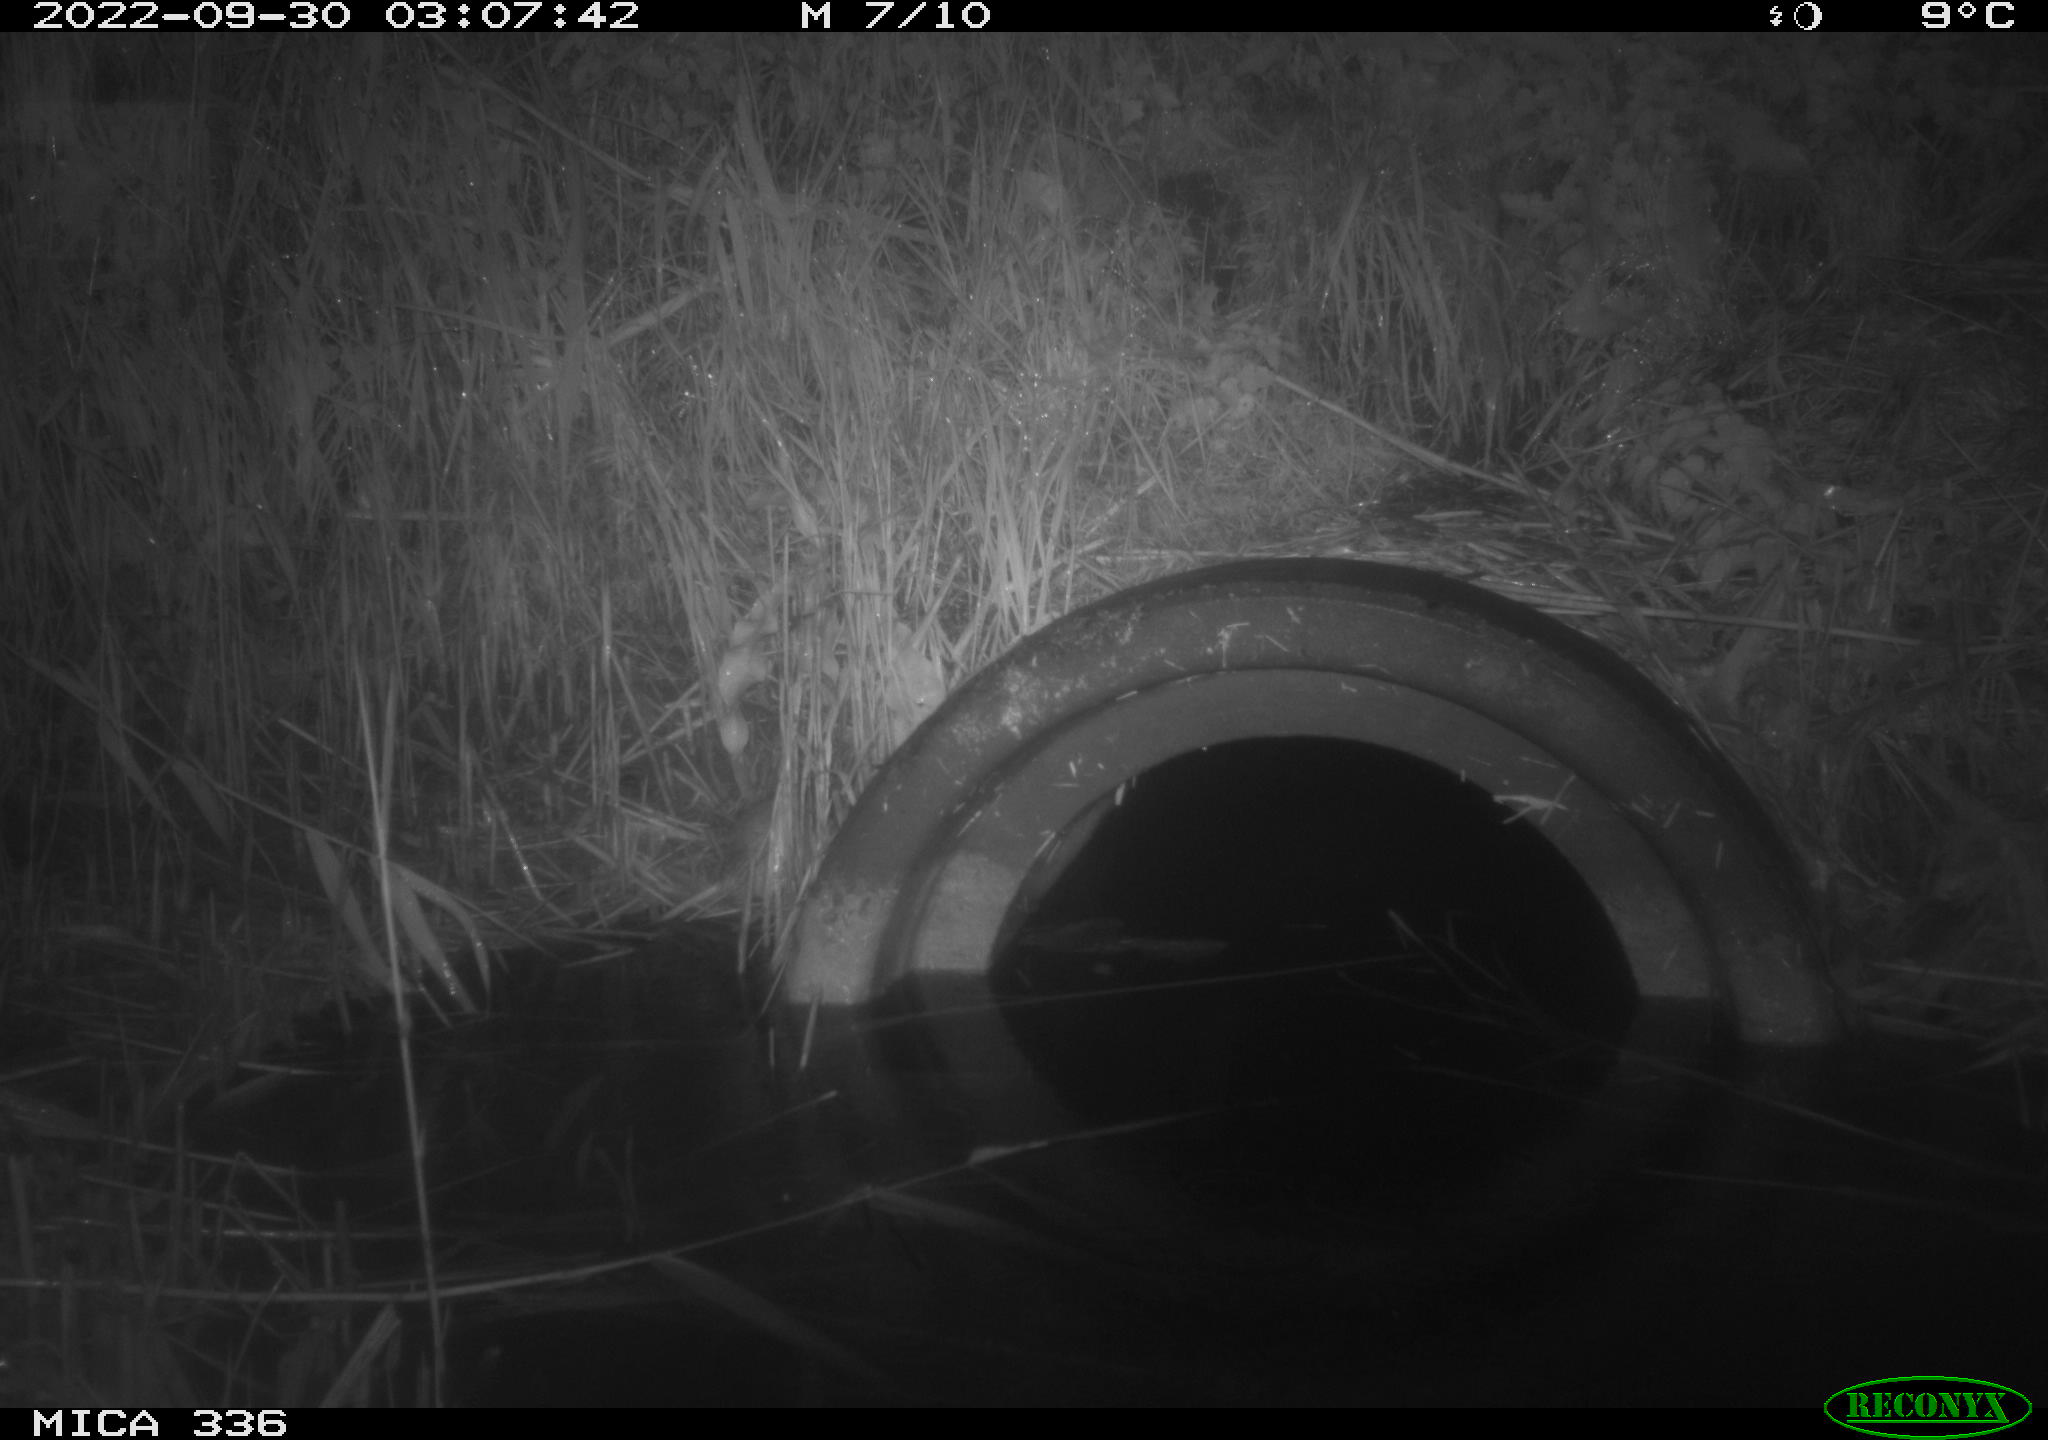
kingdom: Animalia
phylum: Chordata
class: Mammalia
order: Rodentia
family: Muridae
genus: Rattus
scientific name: Rattus norvegicus
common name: Brown rat
